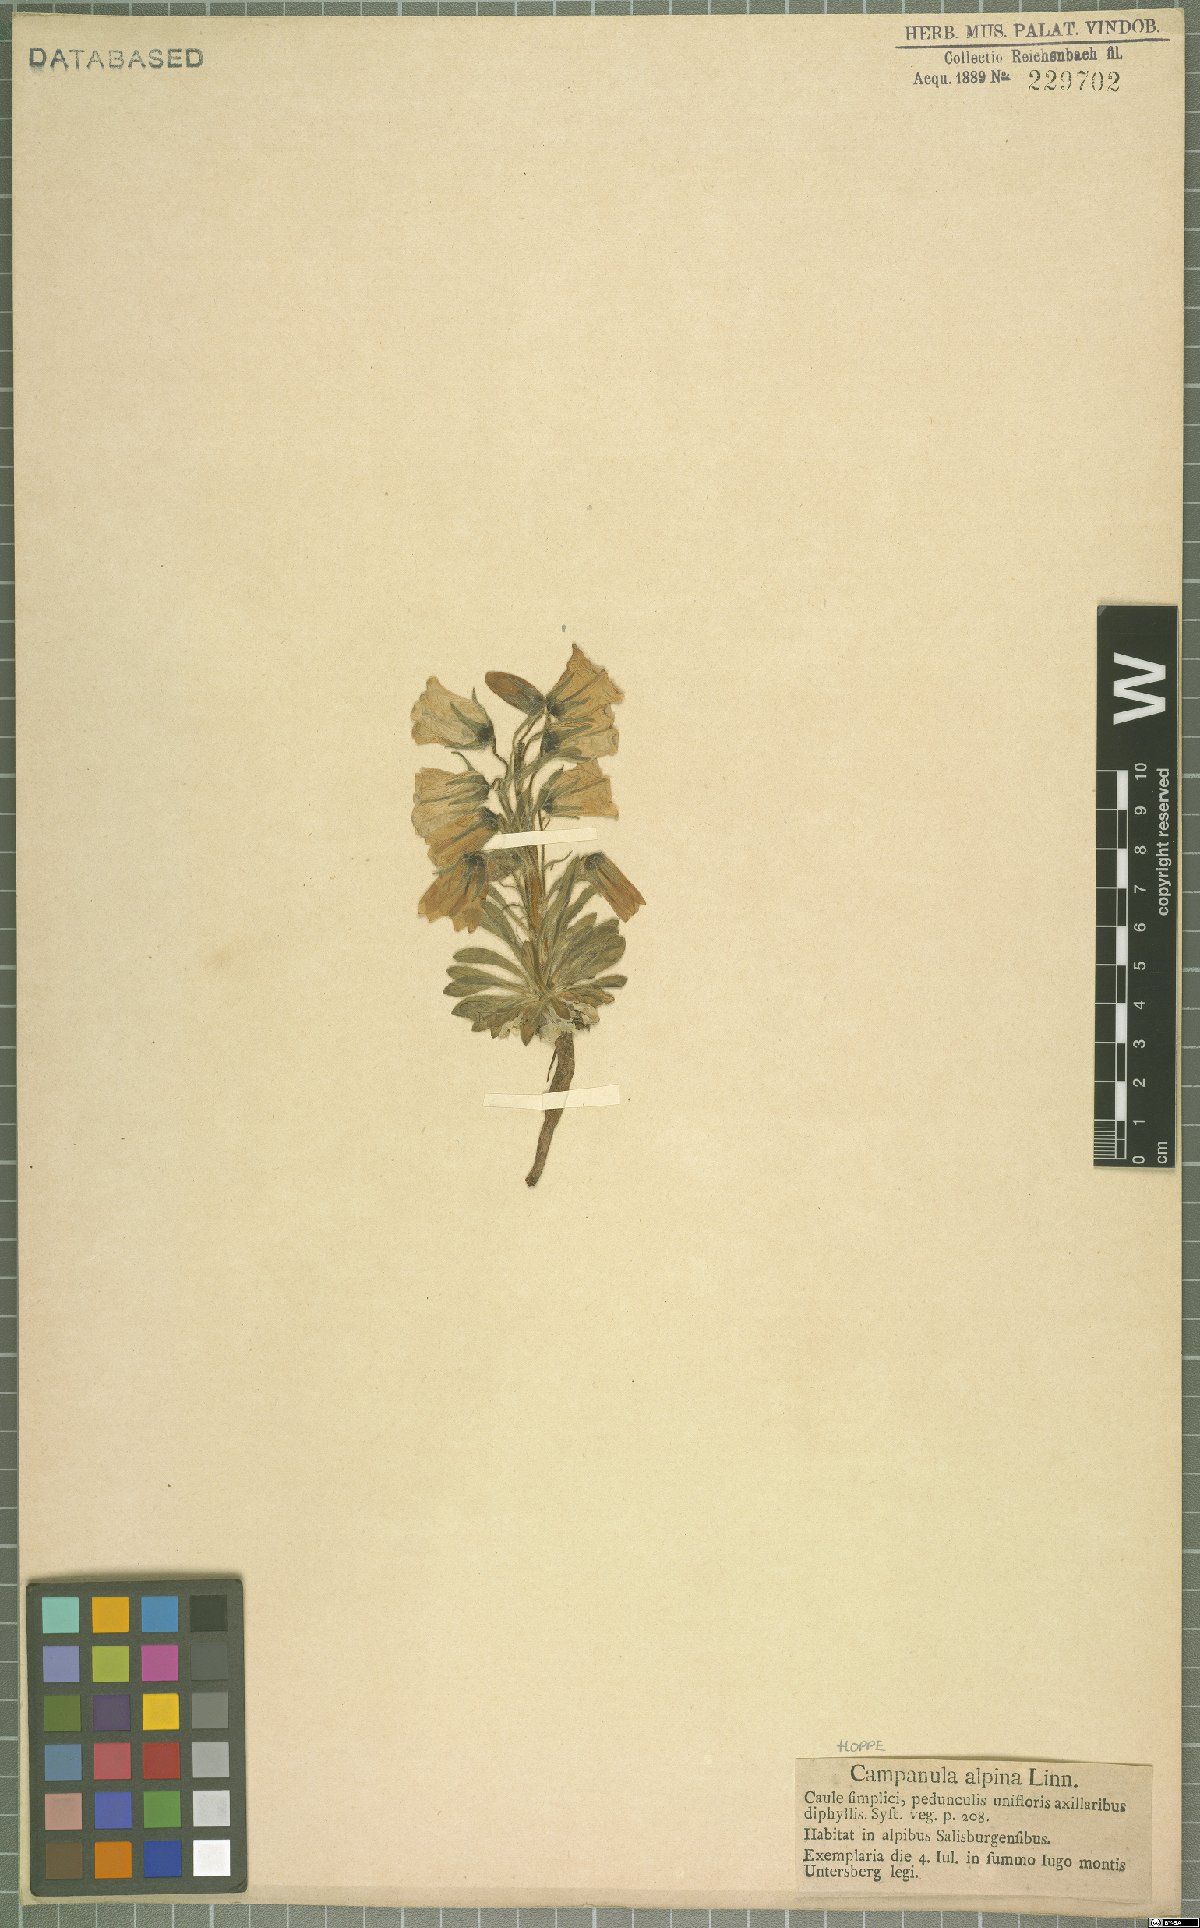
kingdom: Plantae
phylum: Tracheophyta
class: Magnoliopsida
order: Asterales
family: Campanulaceae
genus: Campanula
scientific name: Campanula alpina
